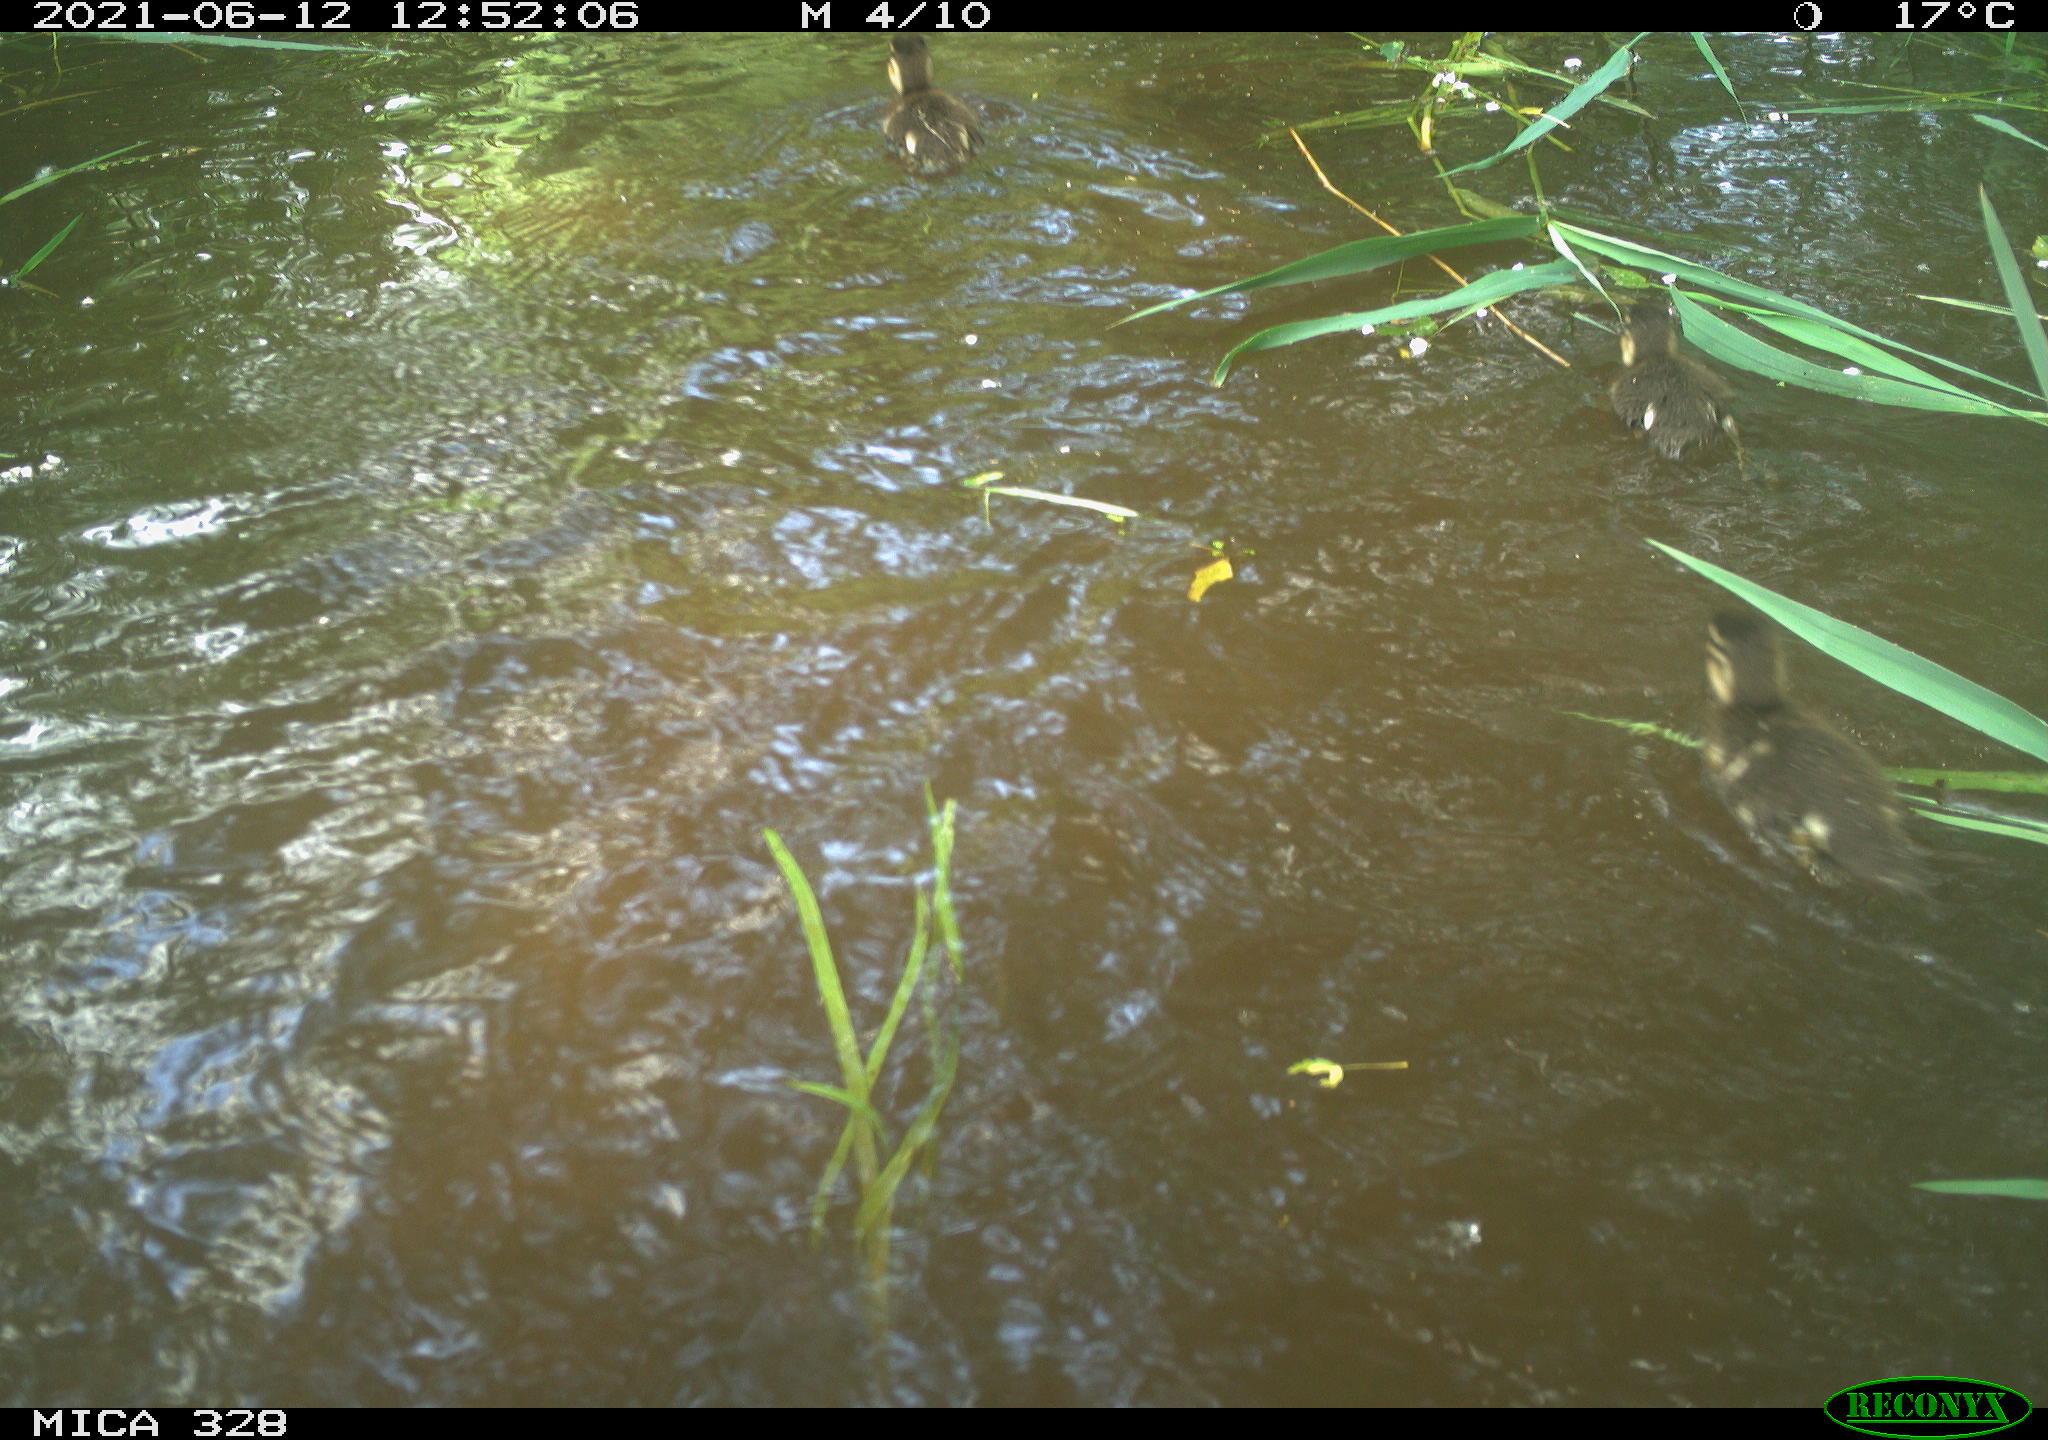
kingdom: Animalia
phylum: Chordata
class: Aves
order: Anseriformes
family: Anatidae
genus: Aix
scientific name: Aix galericulata
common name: Mandarin duck
